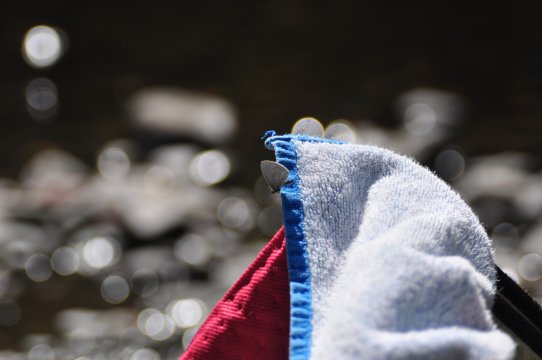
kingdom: Animalia
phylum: Arthropoda
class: Insecta
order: Lepidoptera
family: Lycaenidae
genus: Celastrina
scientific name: Celastrina ladon
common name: Echo Azure
